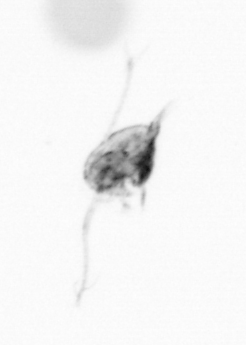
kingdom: Animalia
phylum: Arthropoda
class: Copepoda
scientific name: Copepoda
